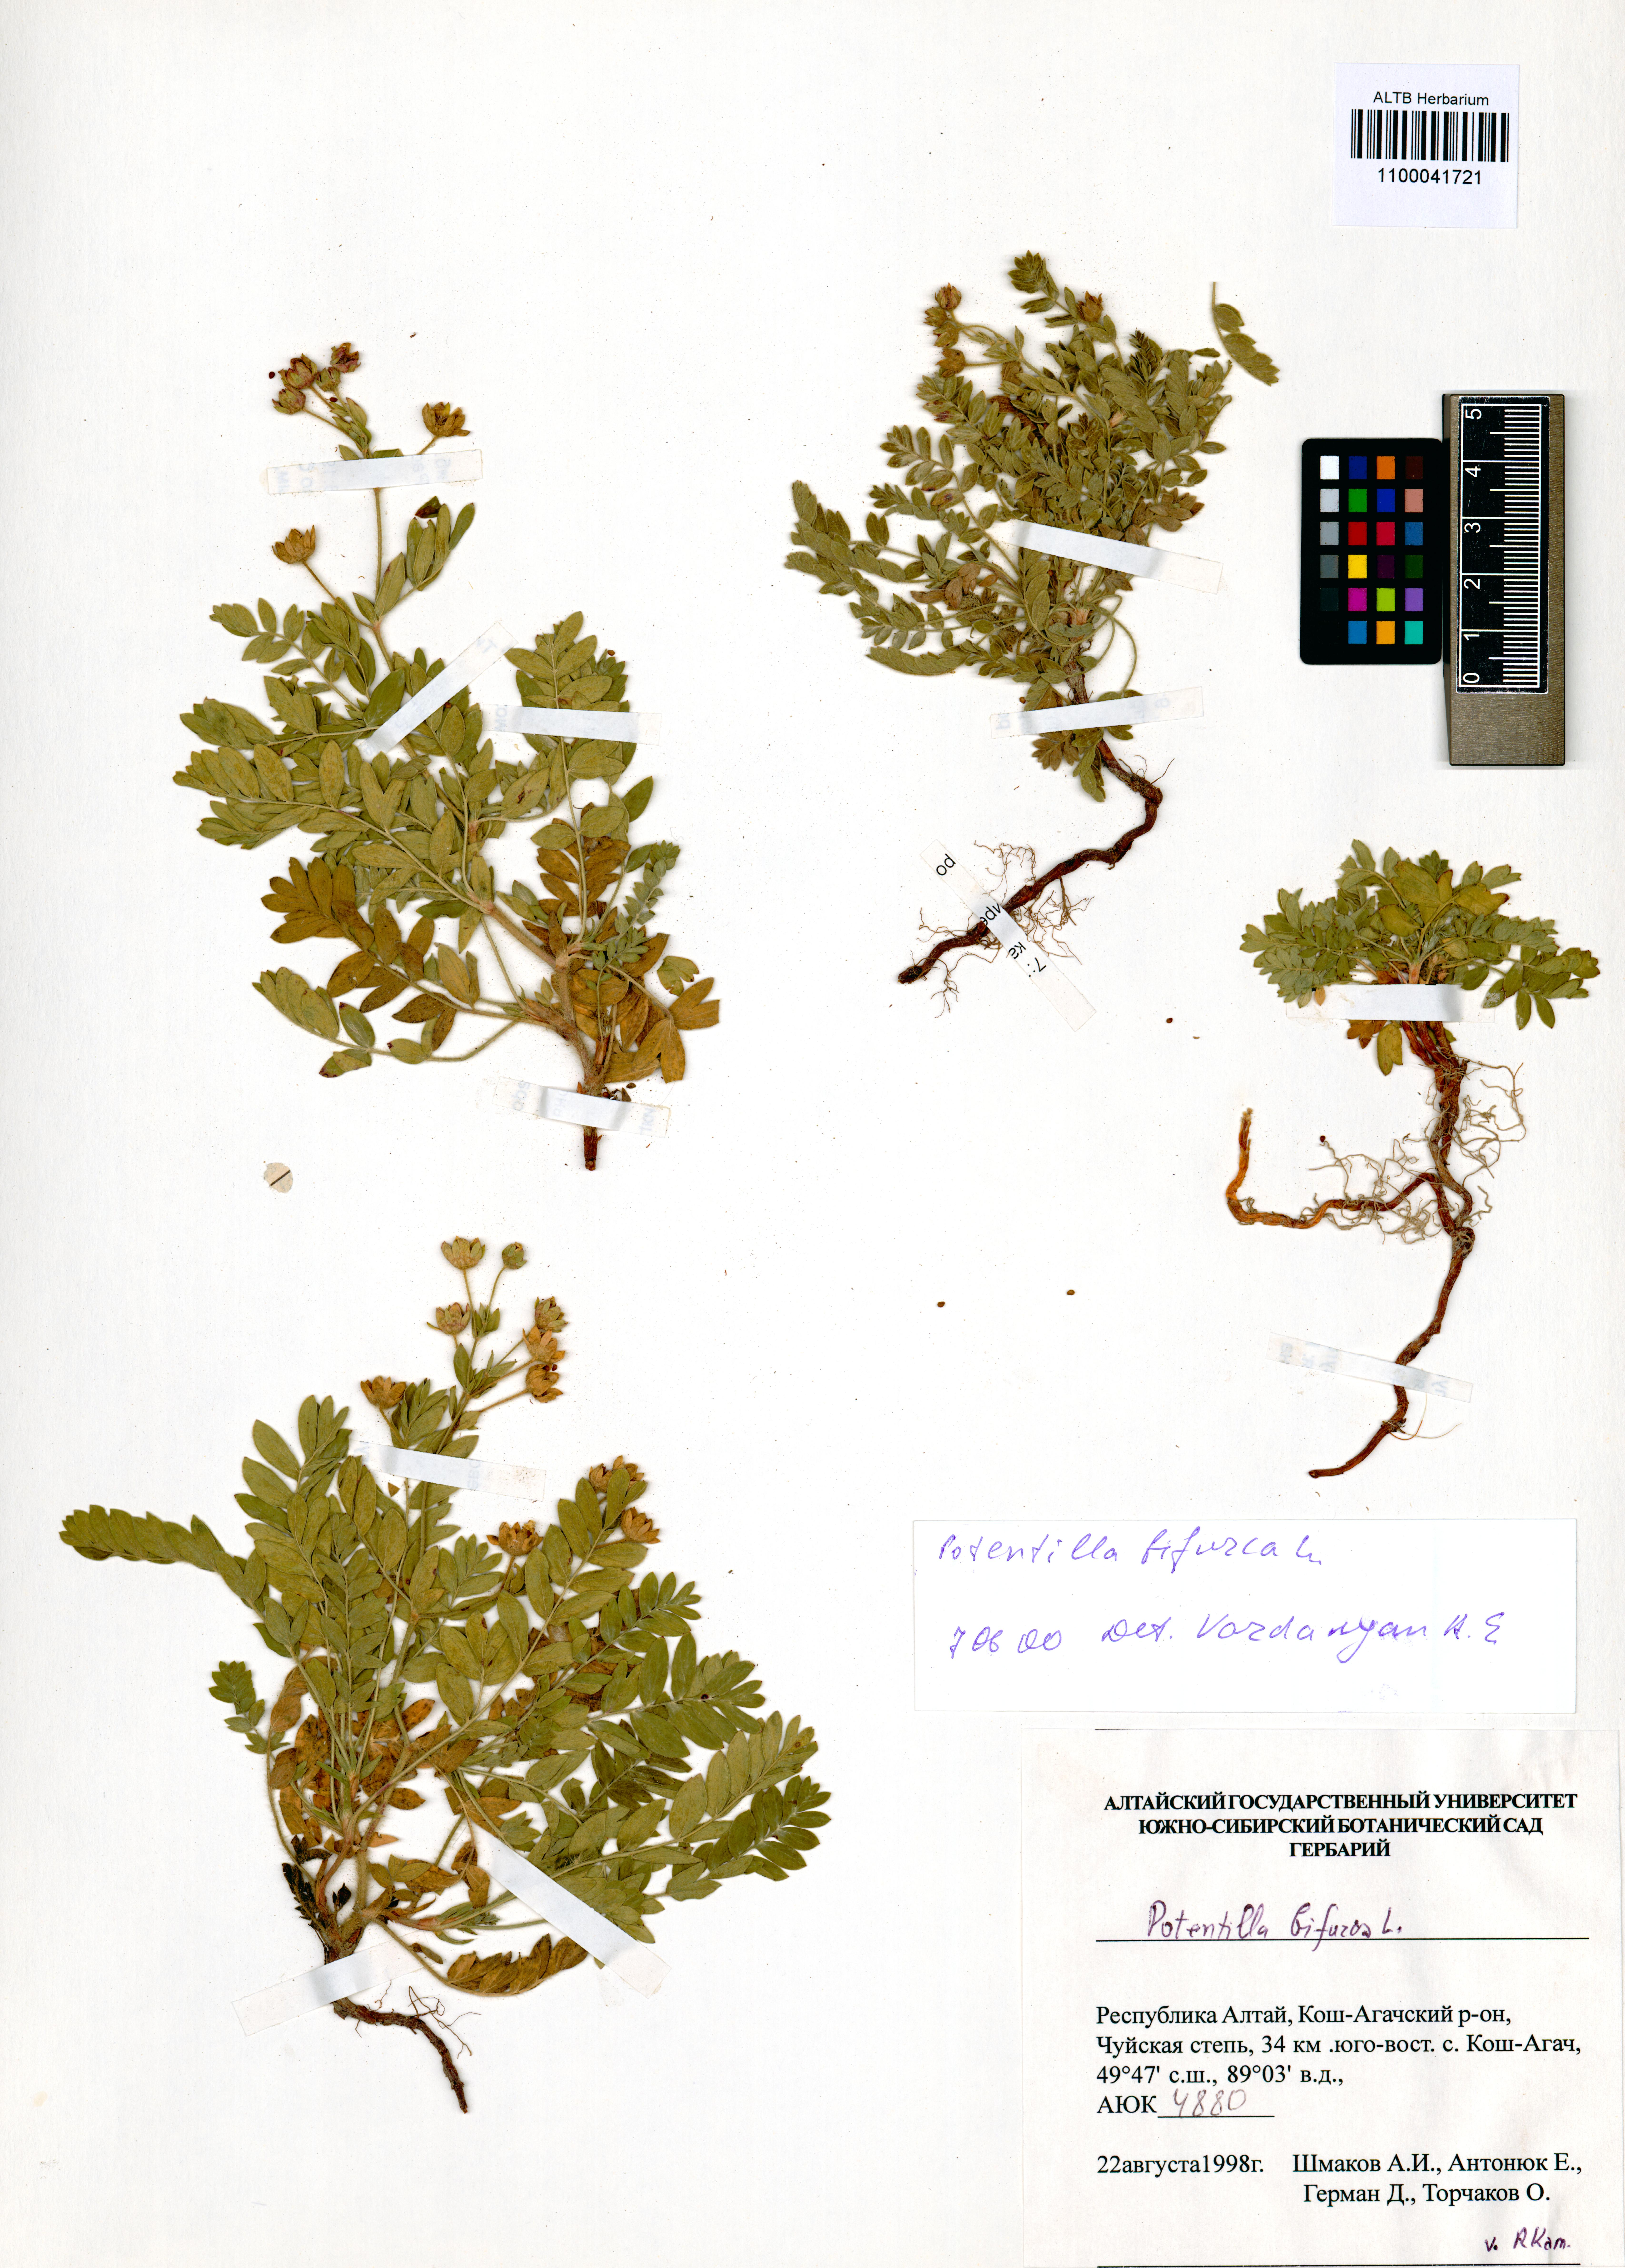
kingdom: Plantae
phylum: Tracheophyta
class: Magnoliopsida
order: Rosales
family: Rosaceae
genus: Sibbaldianthe
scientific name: Sibbaldianthe bifurca
